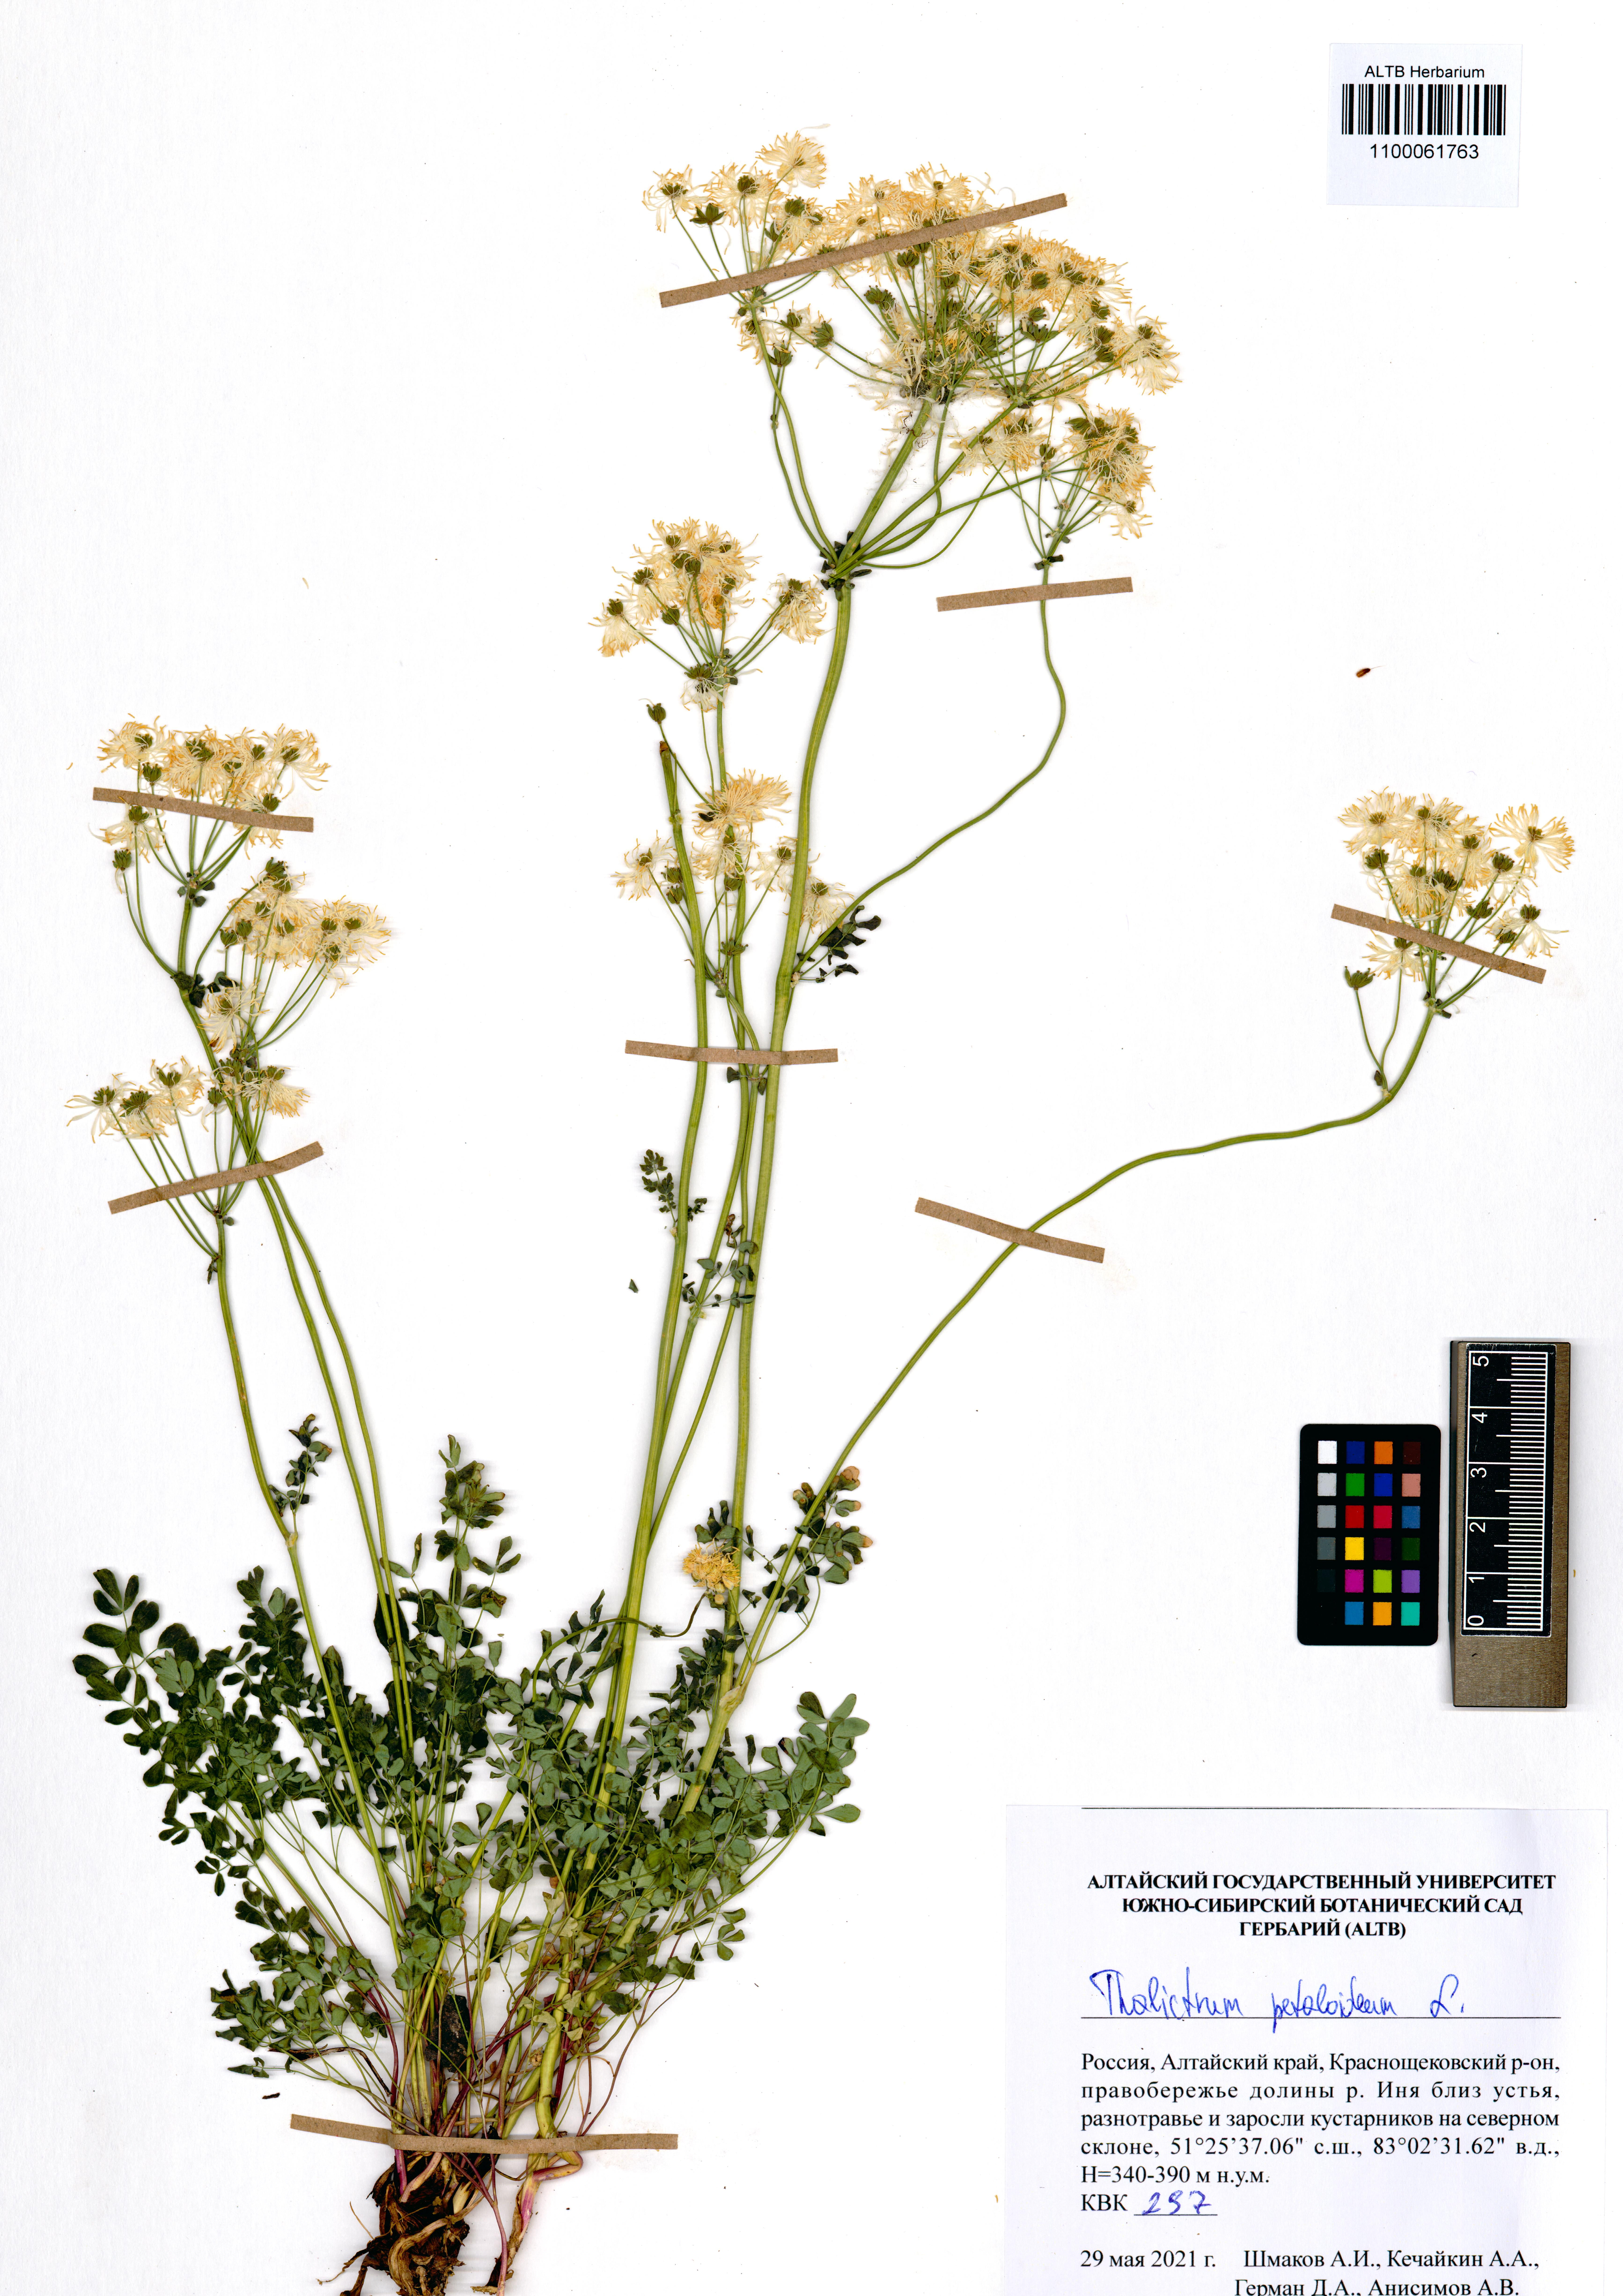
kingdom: Plantae
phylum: Tracheophyta
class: Magnoliopsida
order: Ranunculales
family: Ranunculaceae
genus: Thalictrum
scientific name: Thalictrum petaloideum
